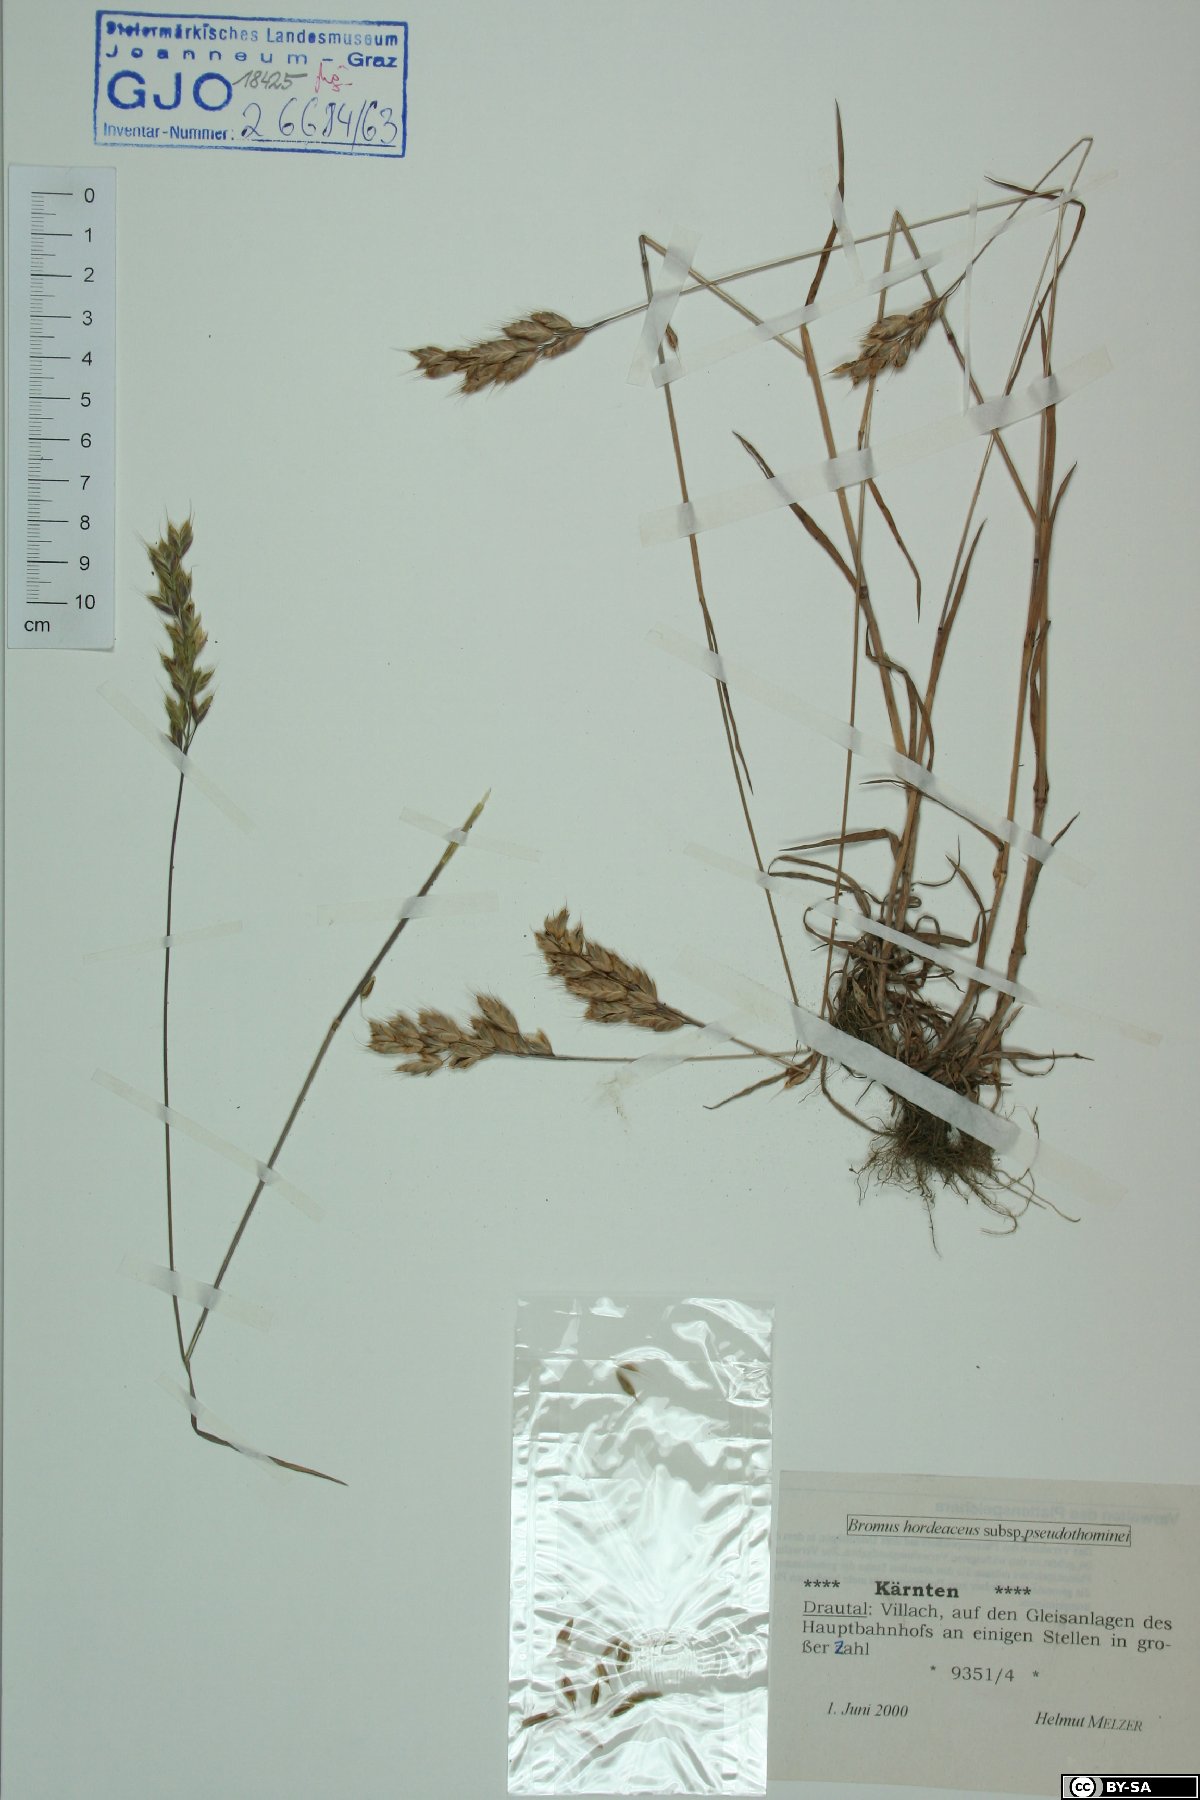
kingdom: Plantae
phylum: Tracheophyta
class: Liliopsida
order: Poales
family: Poaceae
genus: Bromus
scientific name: Bromus ferronii
